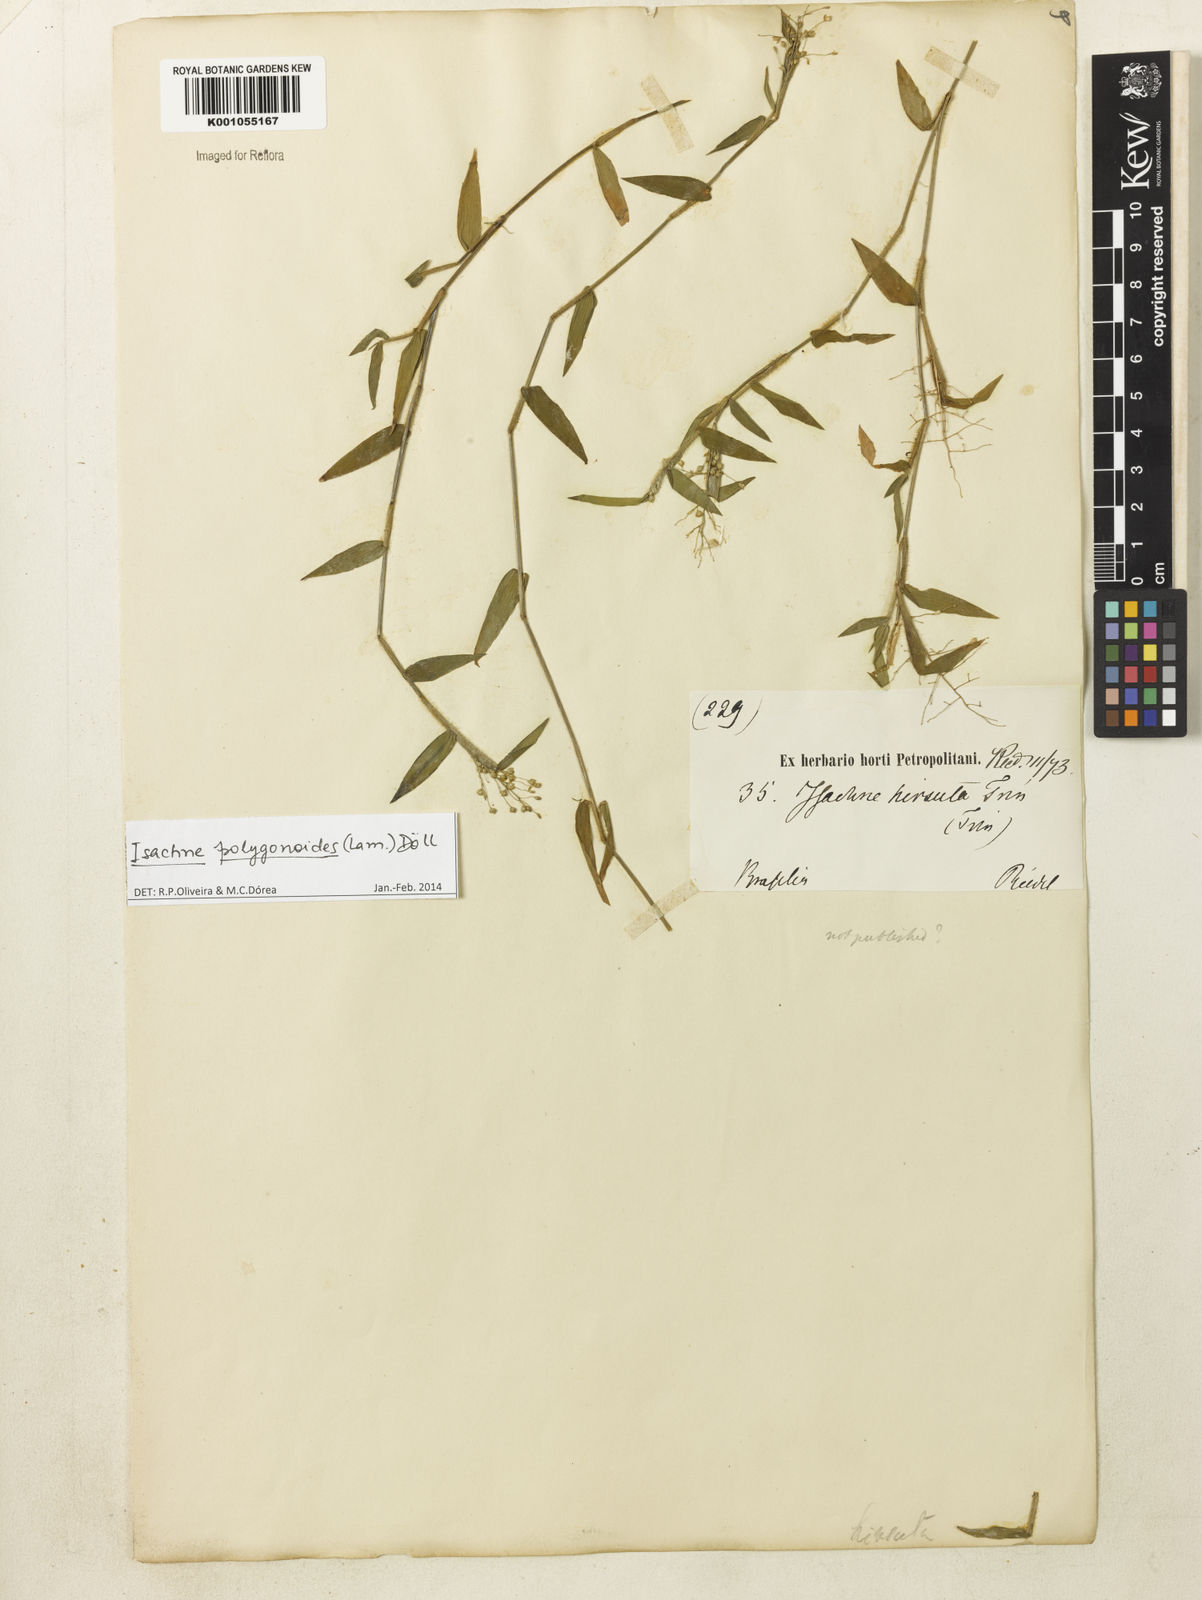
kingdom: Plantae
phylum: Tracheophyta
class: Liliopsida
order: Poales
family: Poaceae
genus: Isachne
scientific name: Isachne
